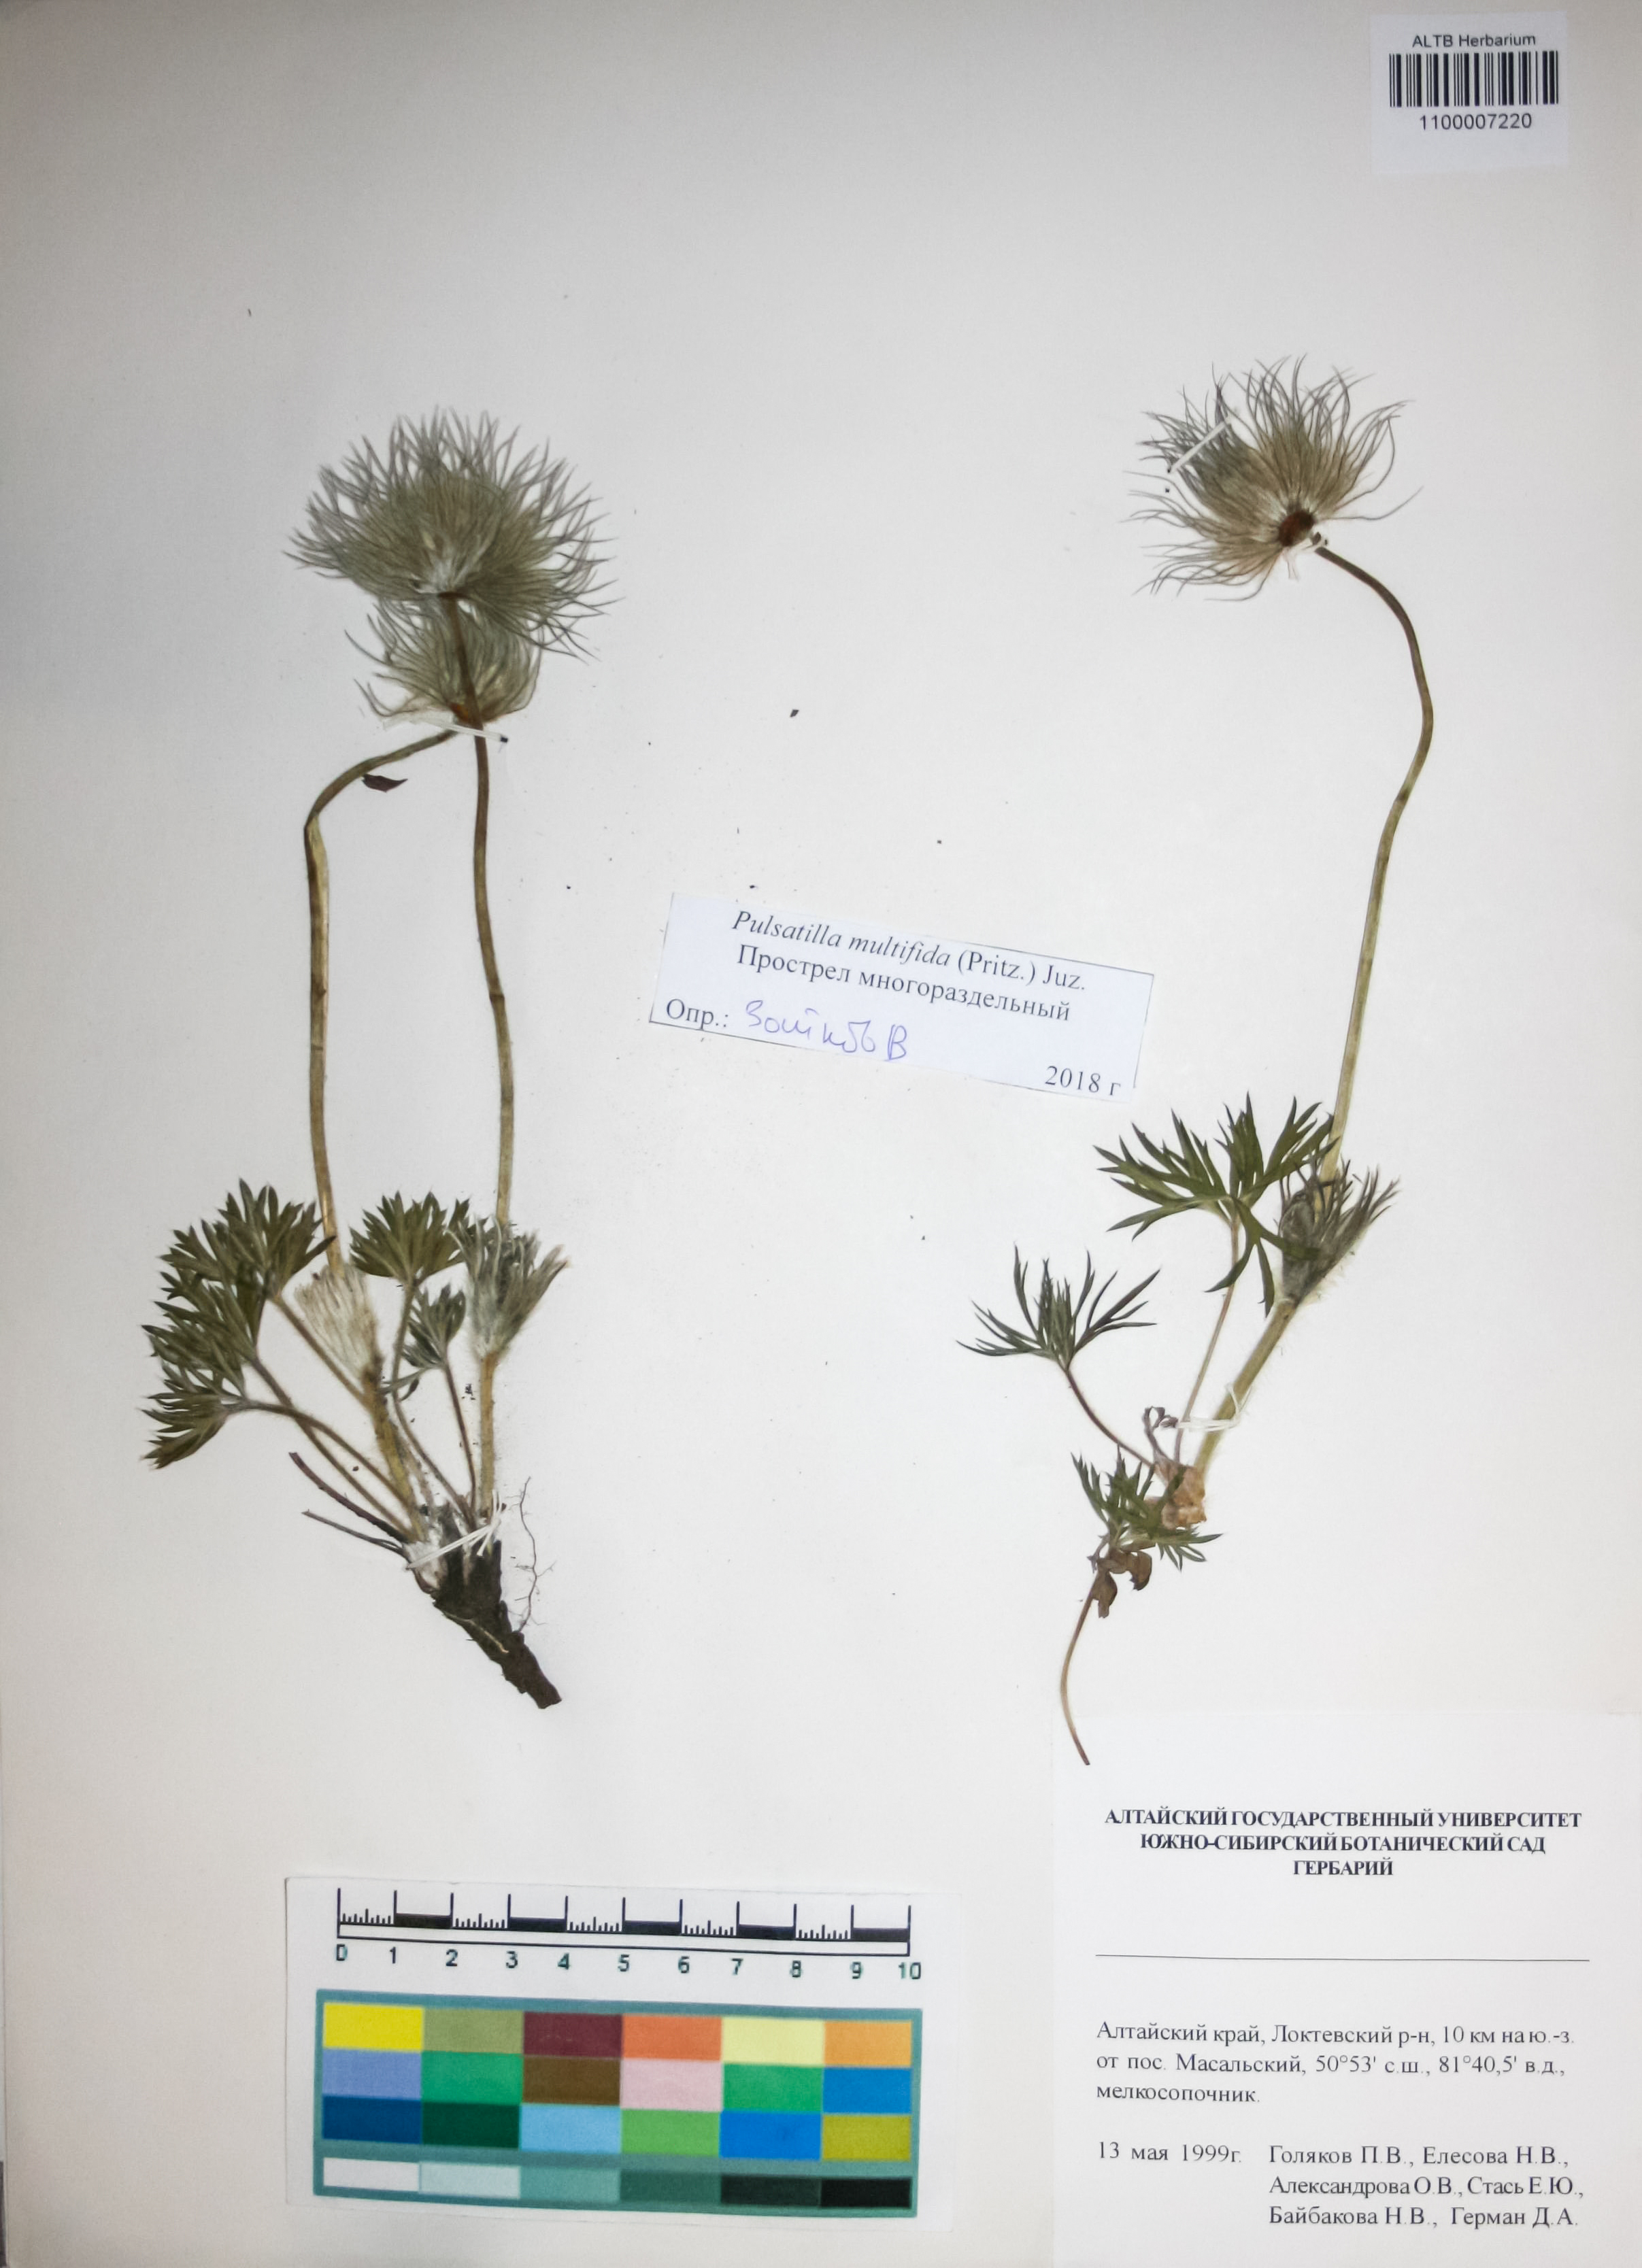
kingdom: Plantae
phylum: Tracheophyta
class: Magnoliopsida
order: Ranunculales
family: Ranunculaceae
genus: Pulsatilla
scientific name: Pulsatilla patens
